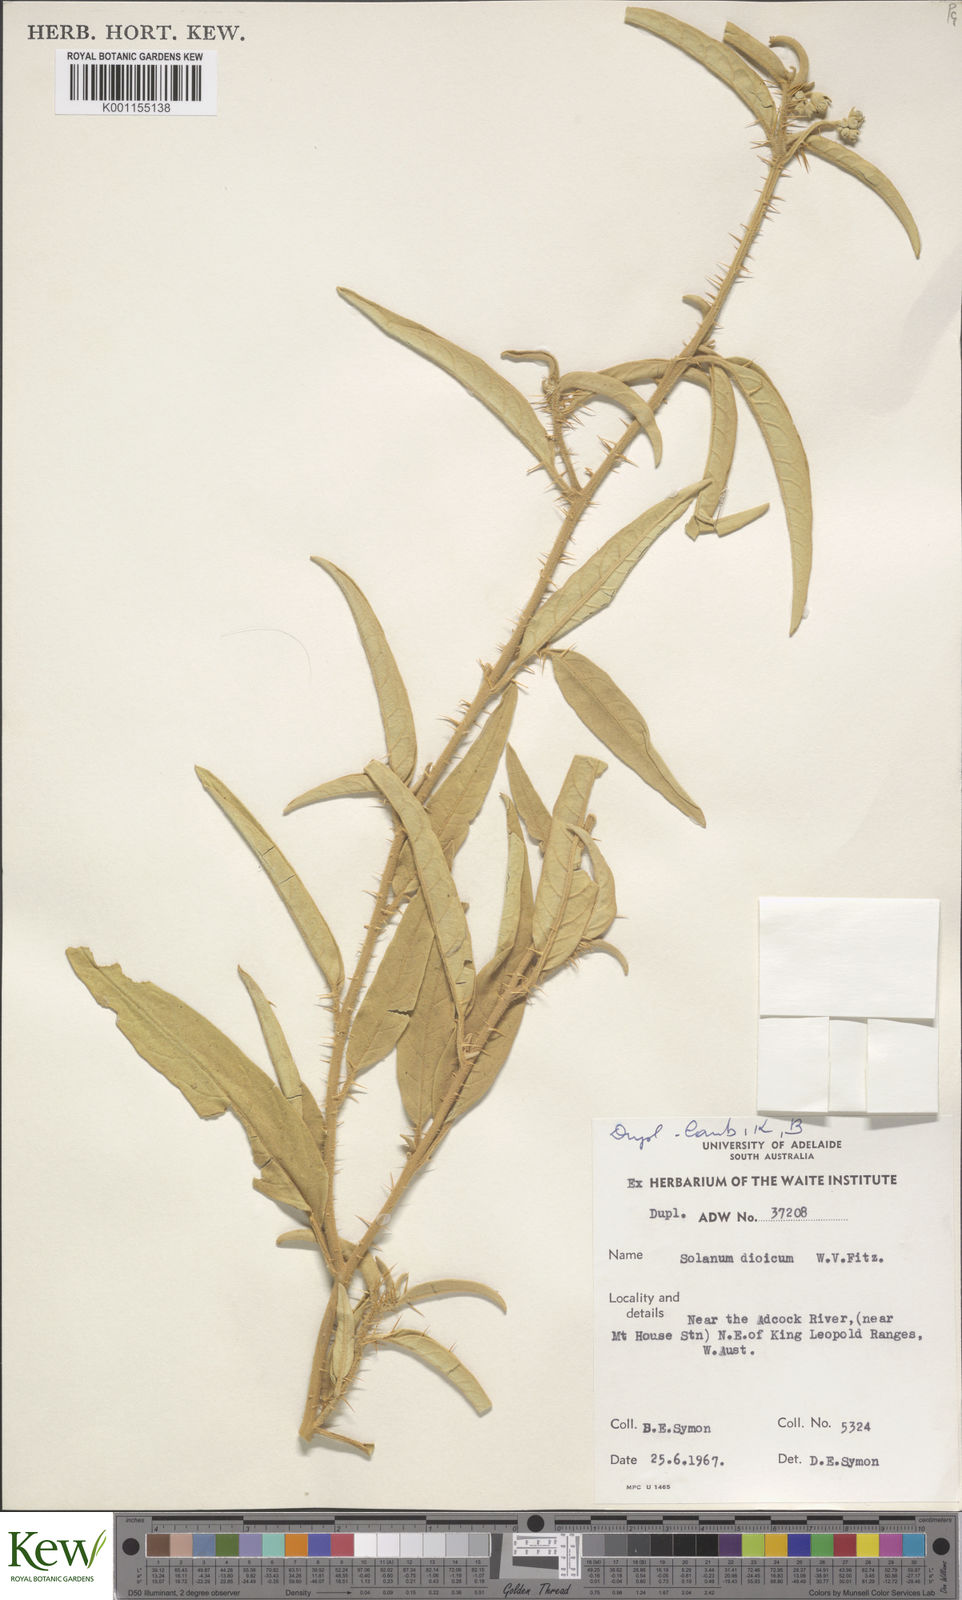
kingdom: Plantae
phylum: Tracheophyta
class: Magnoliopsida
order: Solanales
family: Solanaceae
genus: Solanum
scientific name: Solanum dioicum
